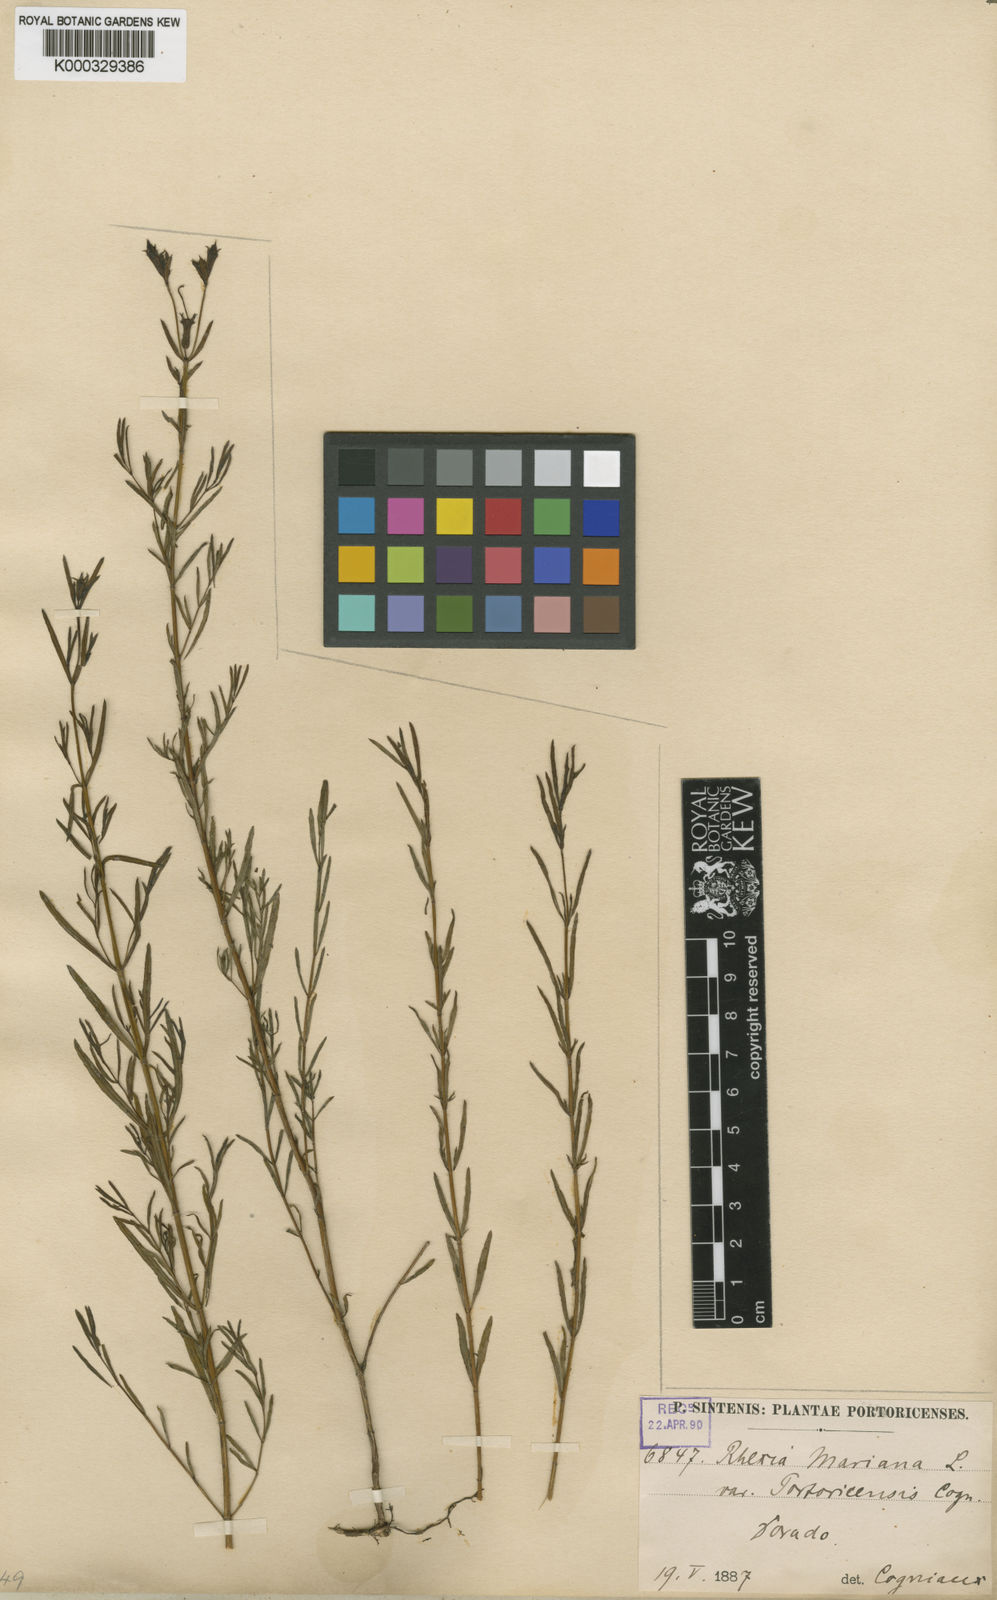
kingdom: Plantae
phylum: Tracheophyta
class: Magnoliopsida
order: Myrtales
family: Melastomataceae
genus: Rhexia
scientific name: Rhexia cubensis
